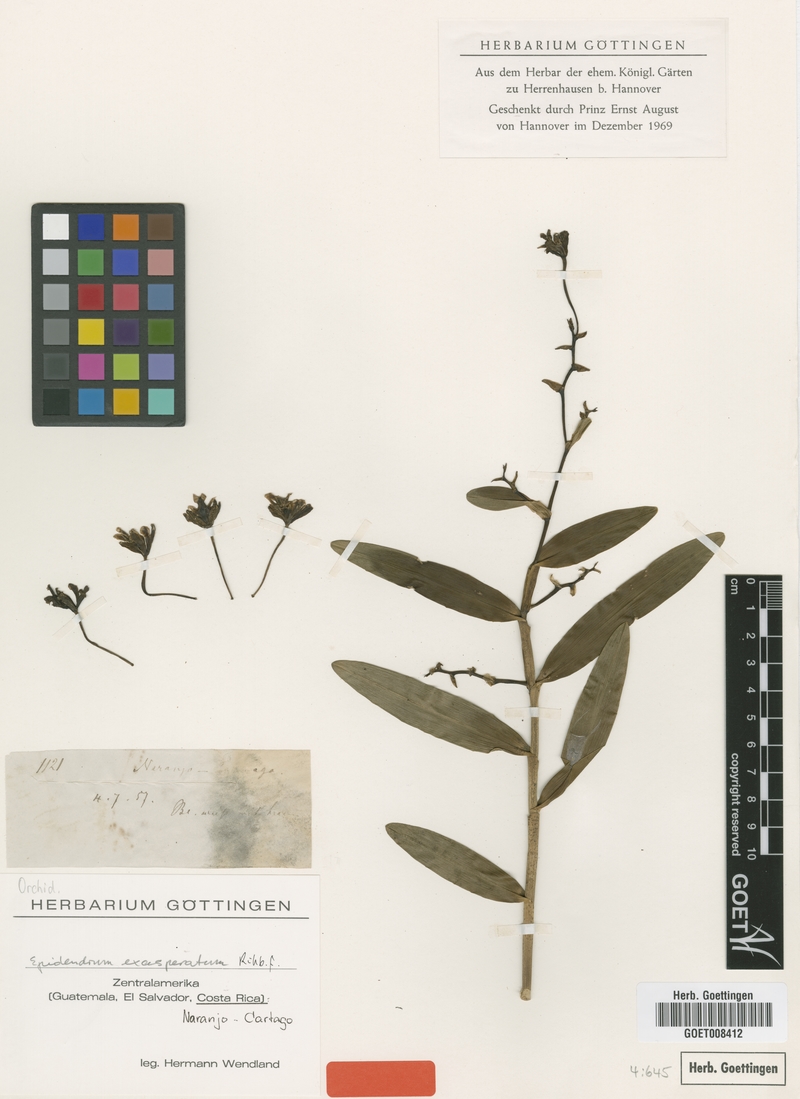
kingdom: Plantae
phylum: Tracheophyta
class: Liliopsida
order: Asparagales
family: Orchidaceae
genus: Epidendrum
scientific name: Epidendrum exasperatum
